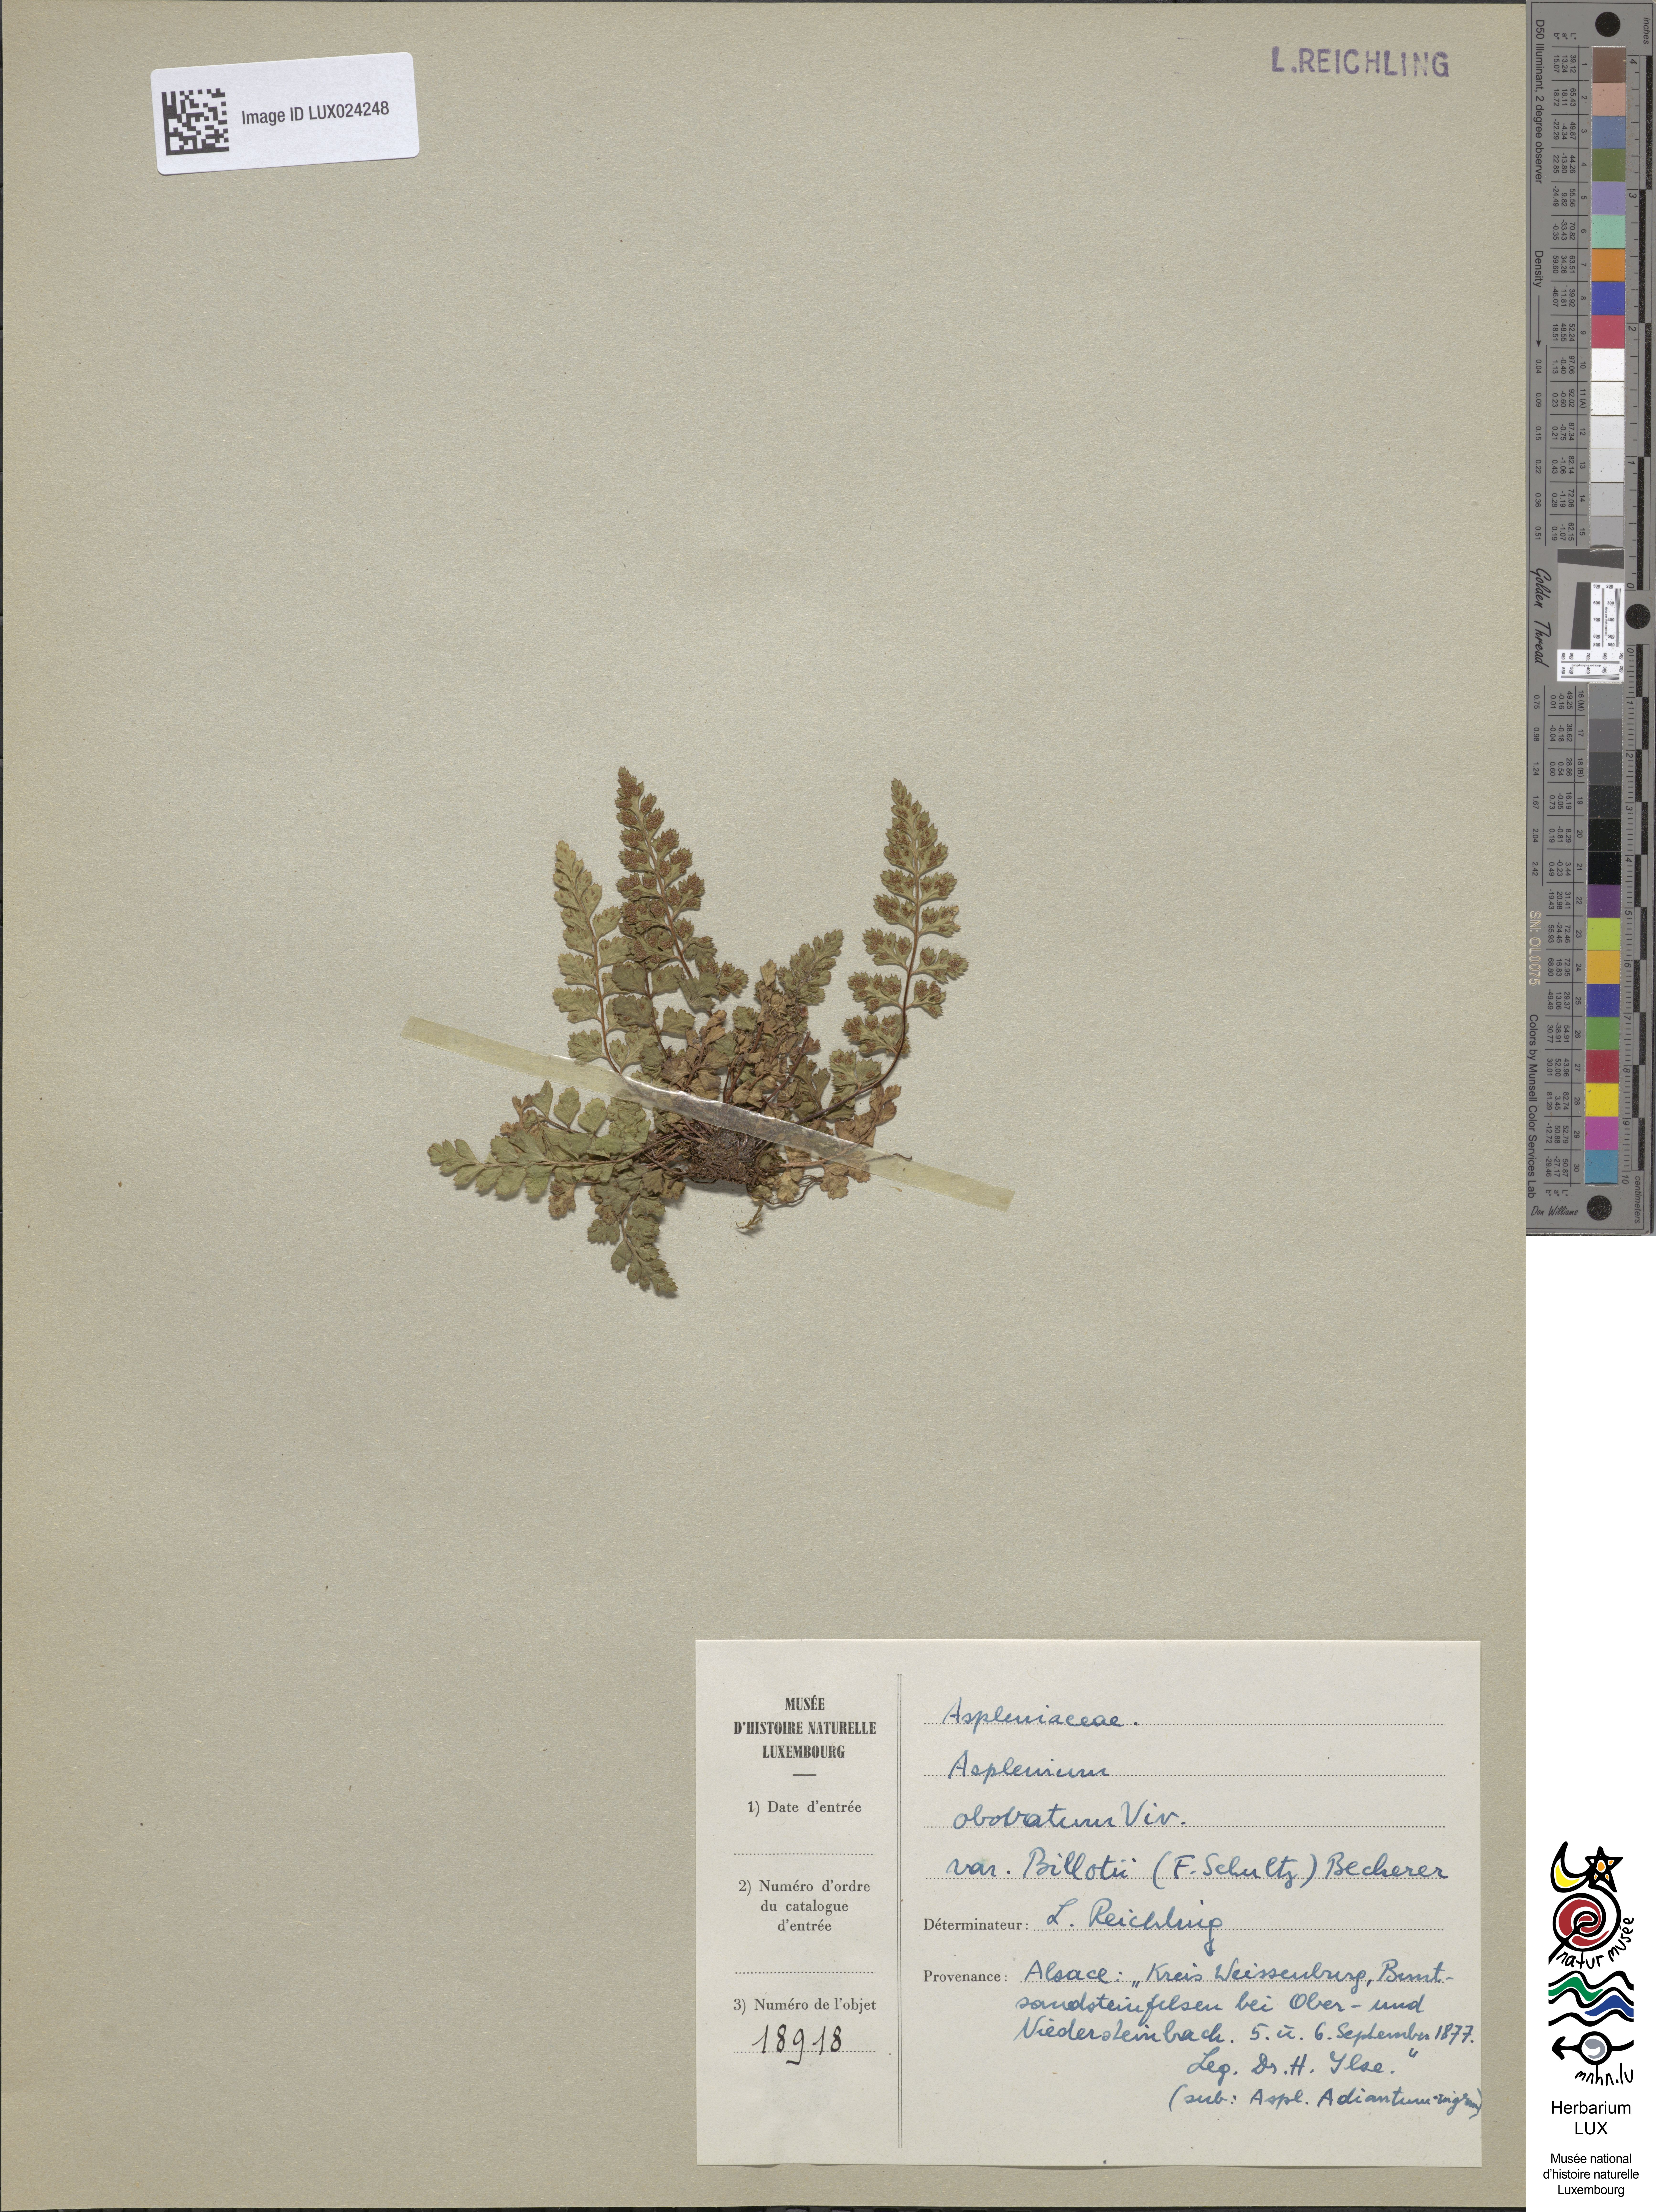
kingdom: Plantae
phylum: Tracheophyta
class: Polypodiopsida
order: Polypodiales
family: Aspleniaceae
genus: Asplenium
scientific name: Asplenium obovatum
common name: Lanceolate spleenwort
